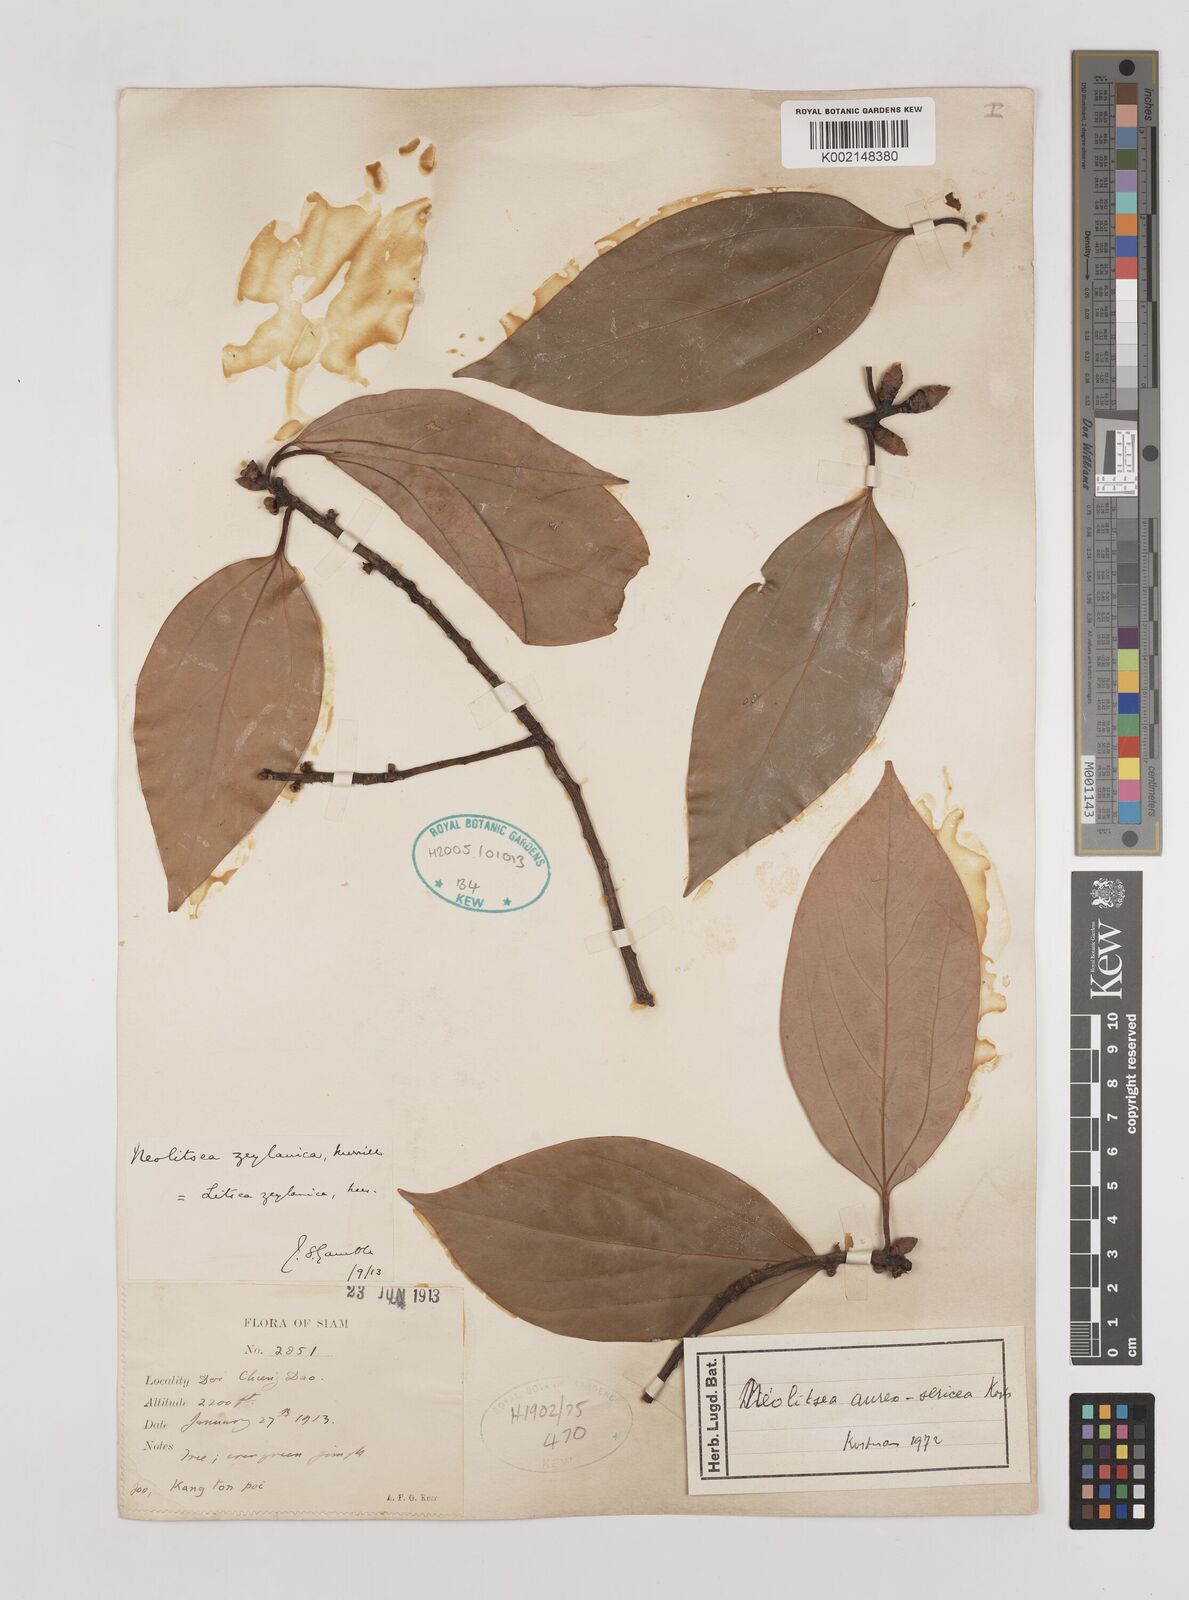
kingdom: Plantae
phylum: Tracheophyta
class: Magnoliopsida
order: Laurales
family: Lauraceae
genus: Neolitsea
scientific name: Neolitsea aureosericea
